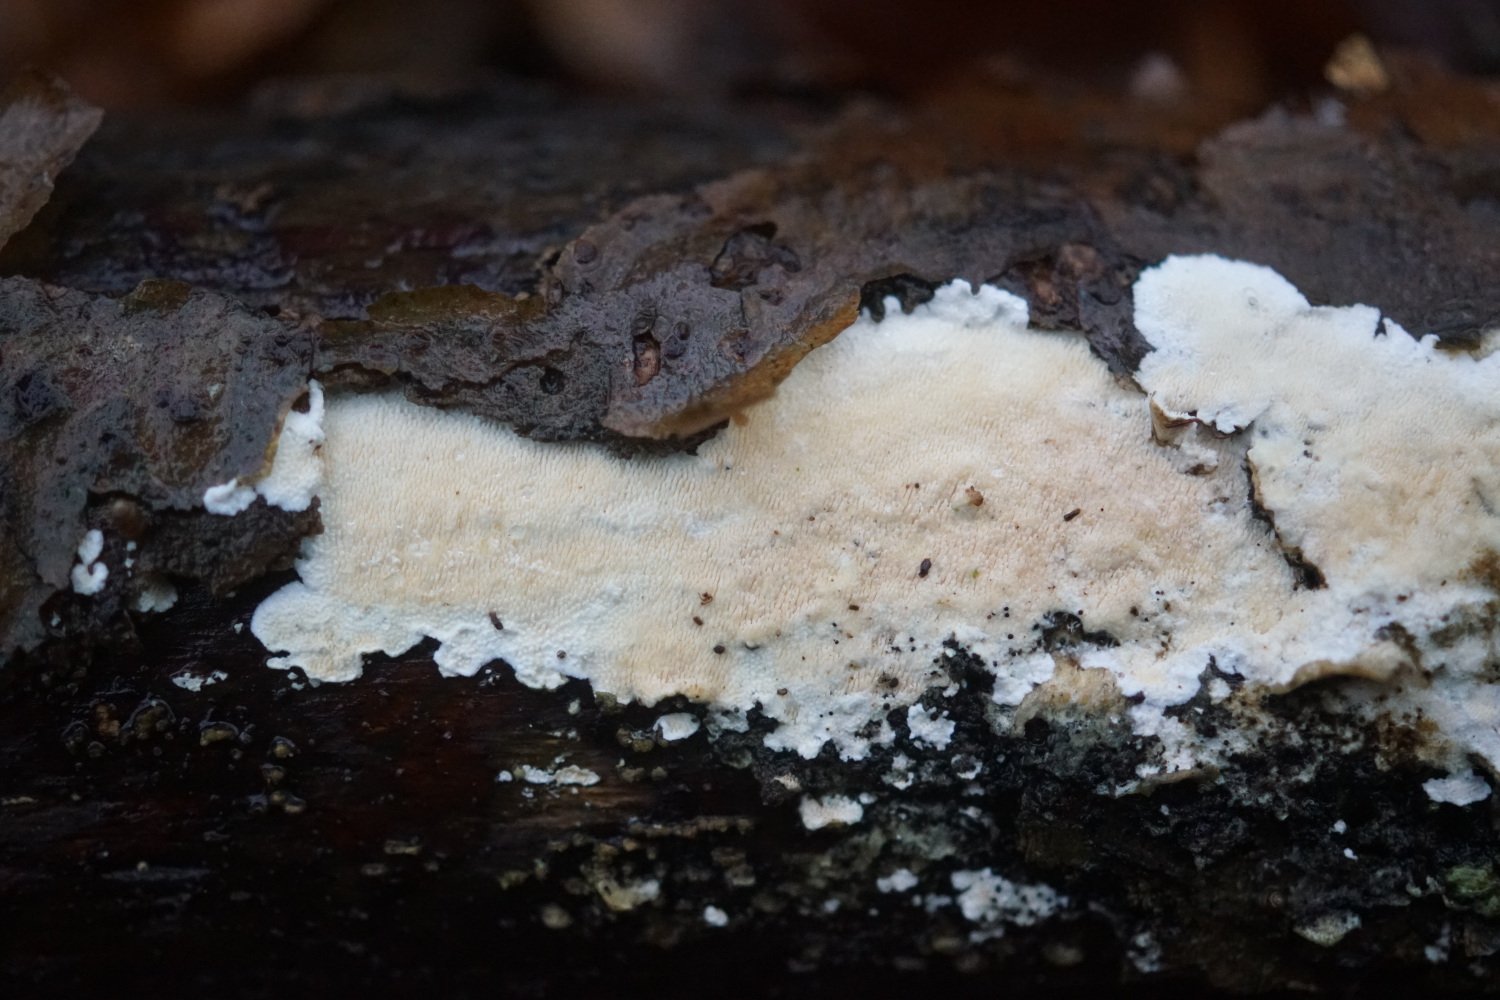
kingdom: Fungi
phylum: Basidiomycota
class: Agaricomycetes
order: Polyporales
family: Steccherinaceae
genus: Steccherinum
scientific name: Steccherinum ochraceum
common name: almindelig skønpig
